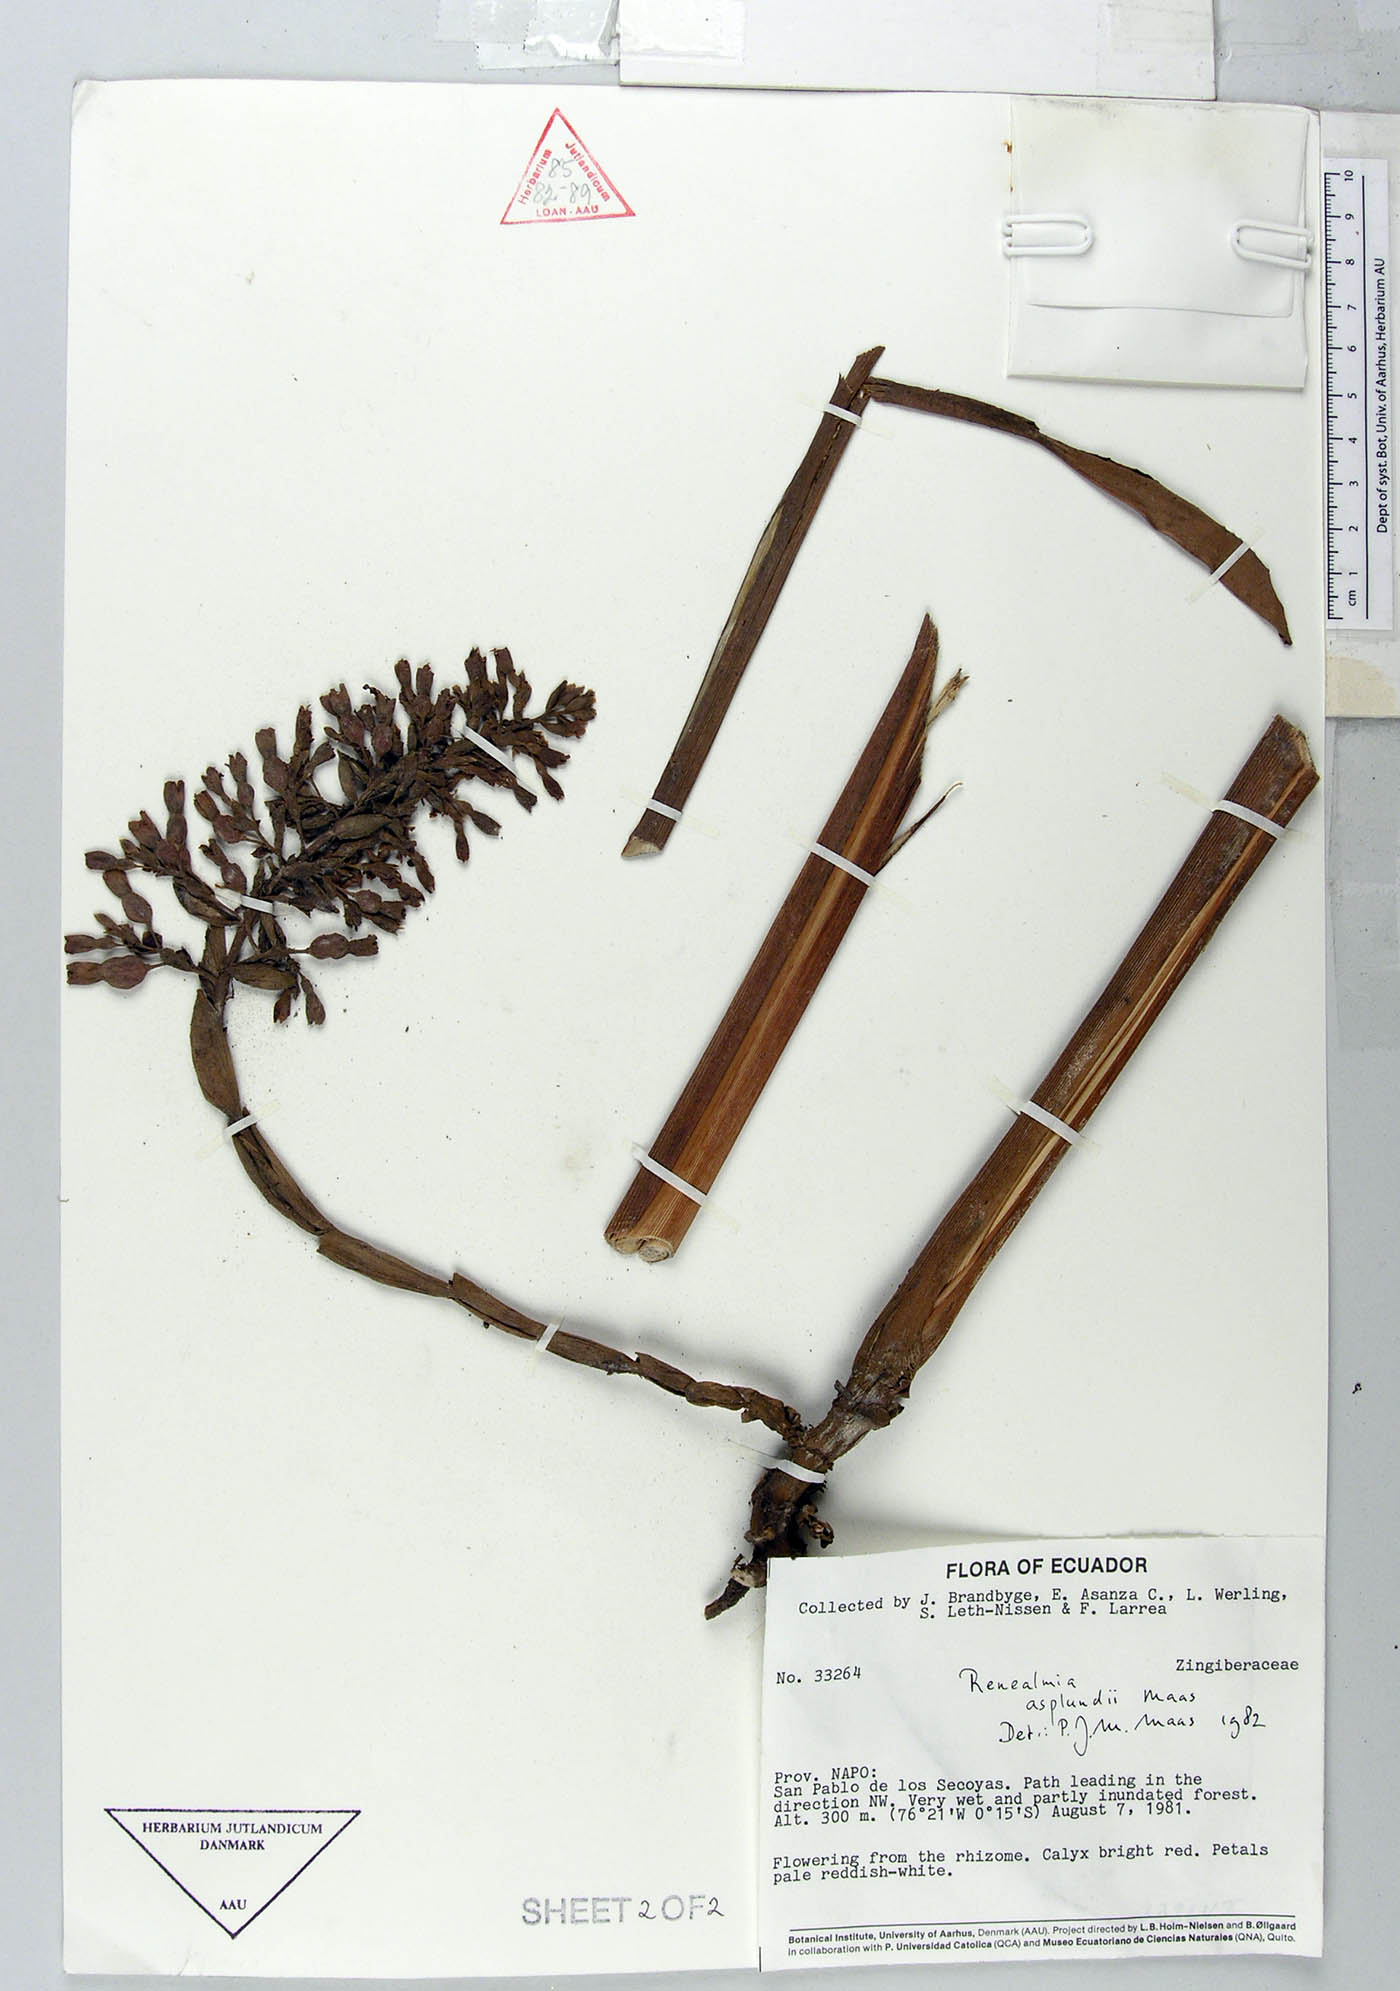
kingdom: Plantae
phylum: Tracheophyta
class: Liliopsida
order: Zingiberales
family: Zingiberaceae
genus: Renealmia
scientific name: Renealmia asplundii
